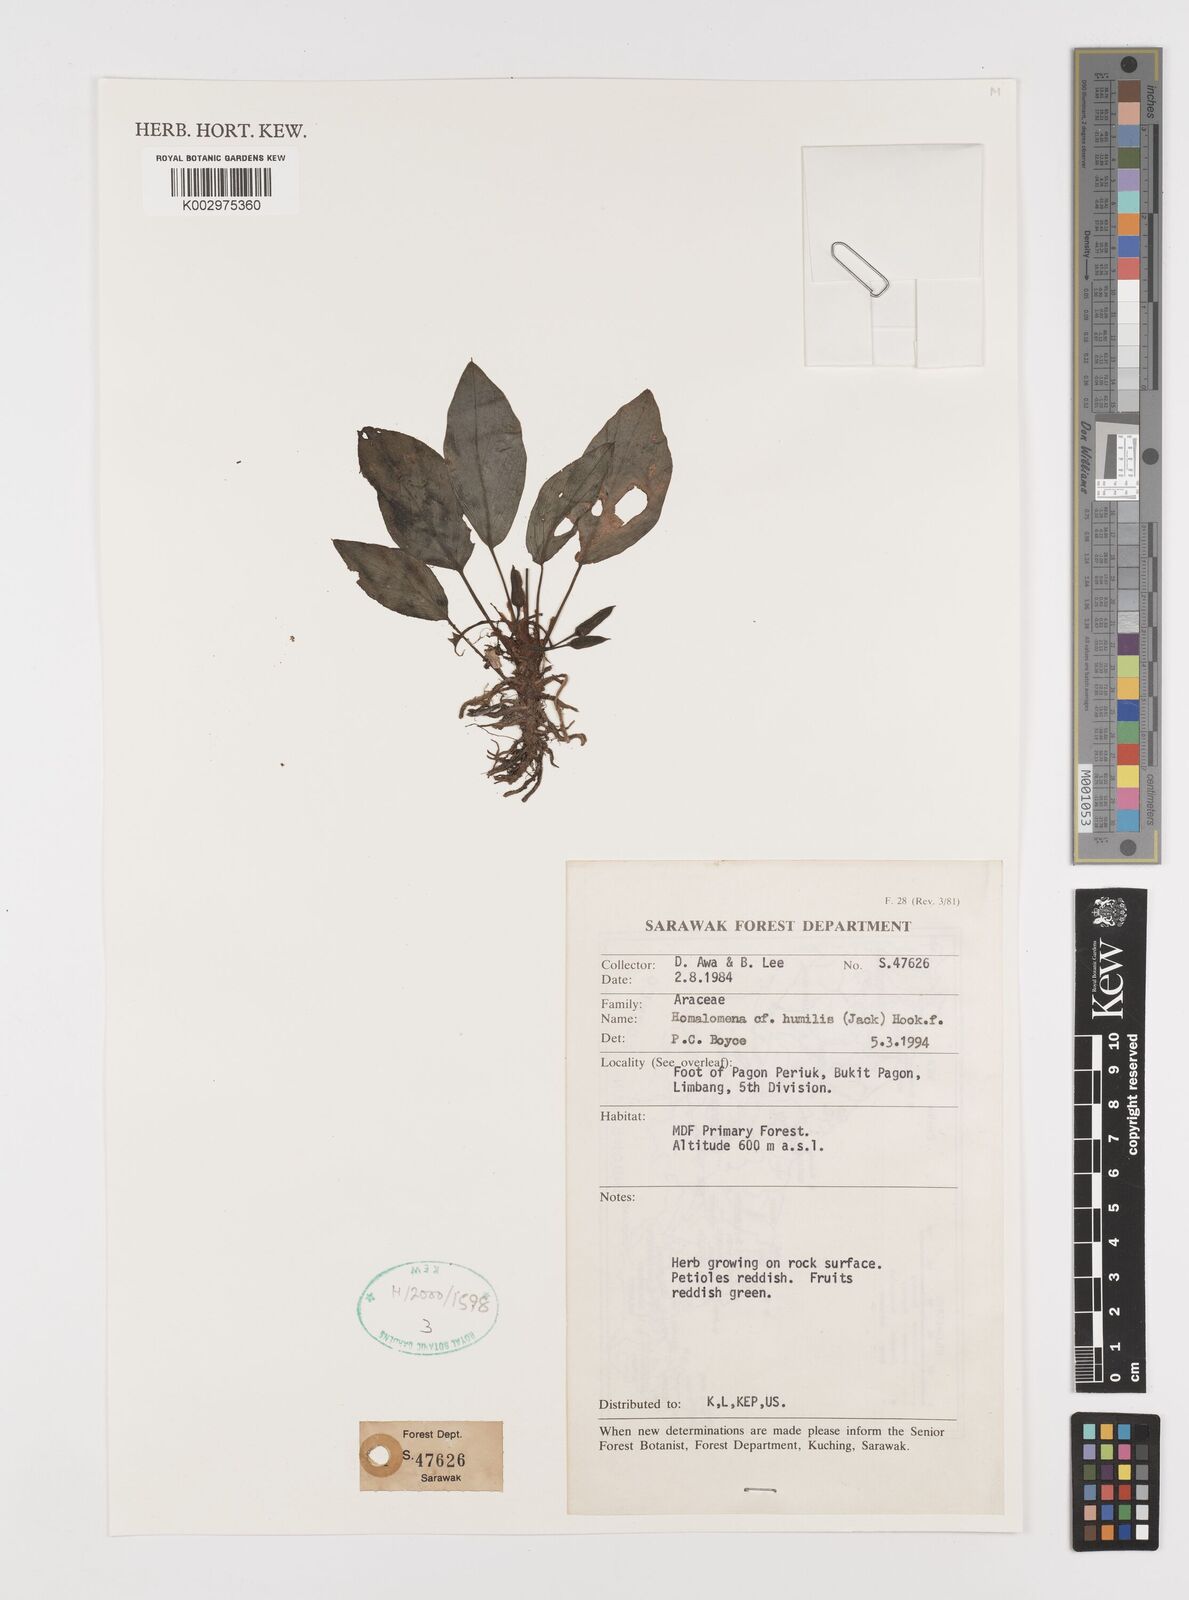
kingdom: Plantae
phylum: Tracheophyta
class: Liliopsida
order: Alismatales
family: Araceae
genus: Homalomena
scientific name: Homalomena humilis
